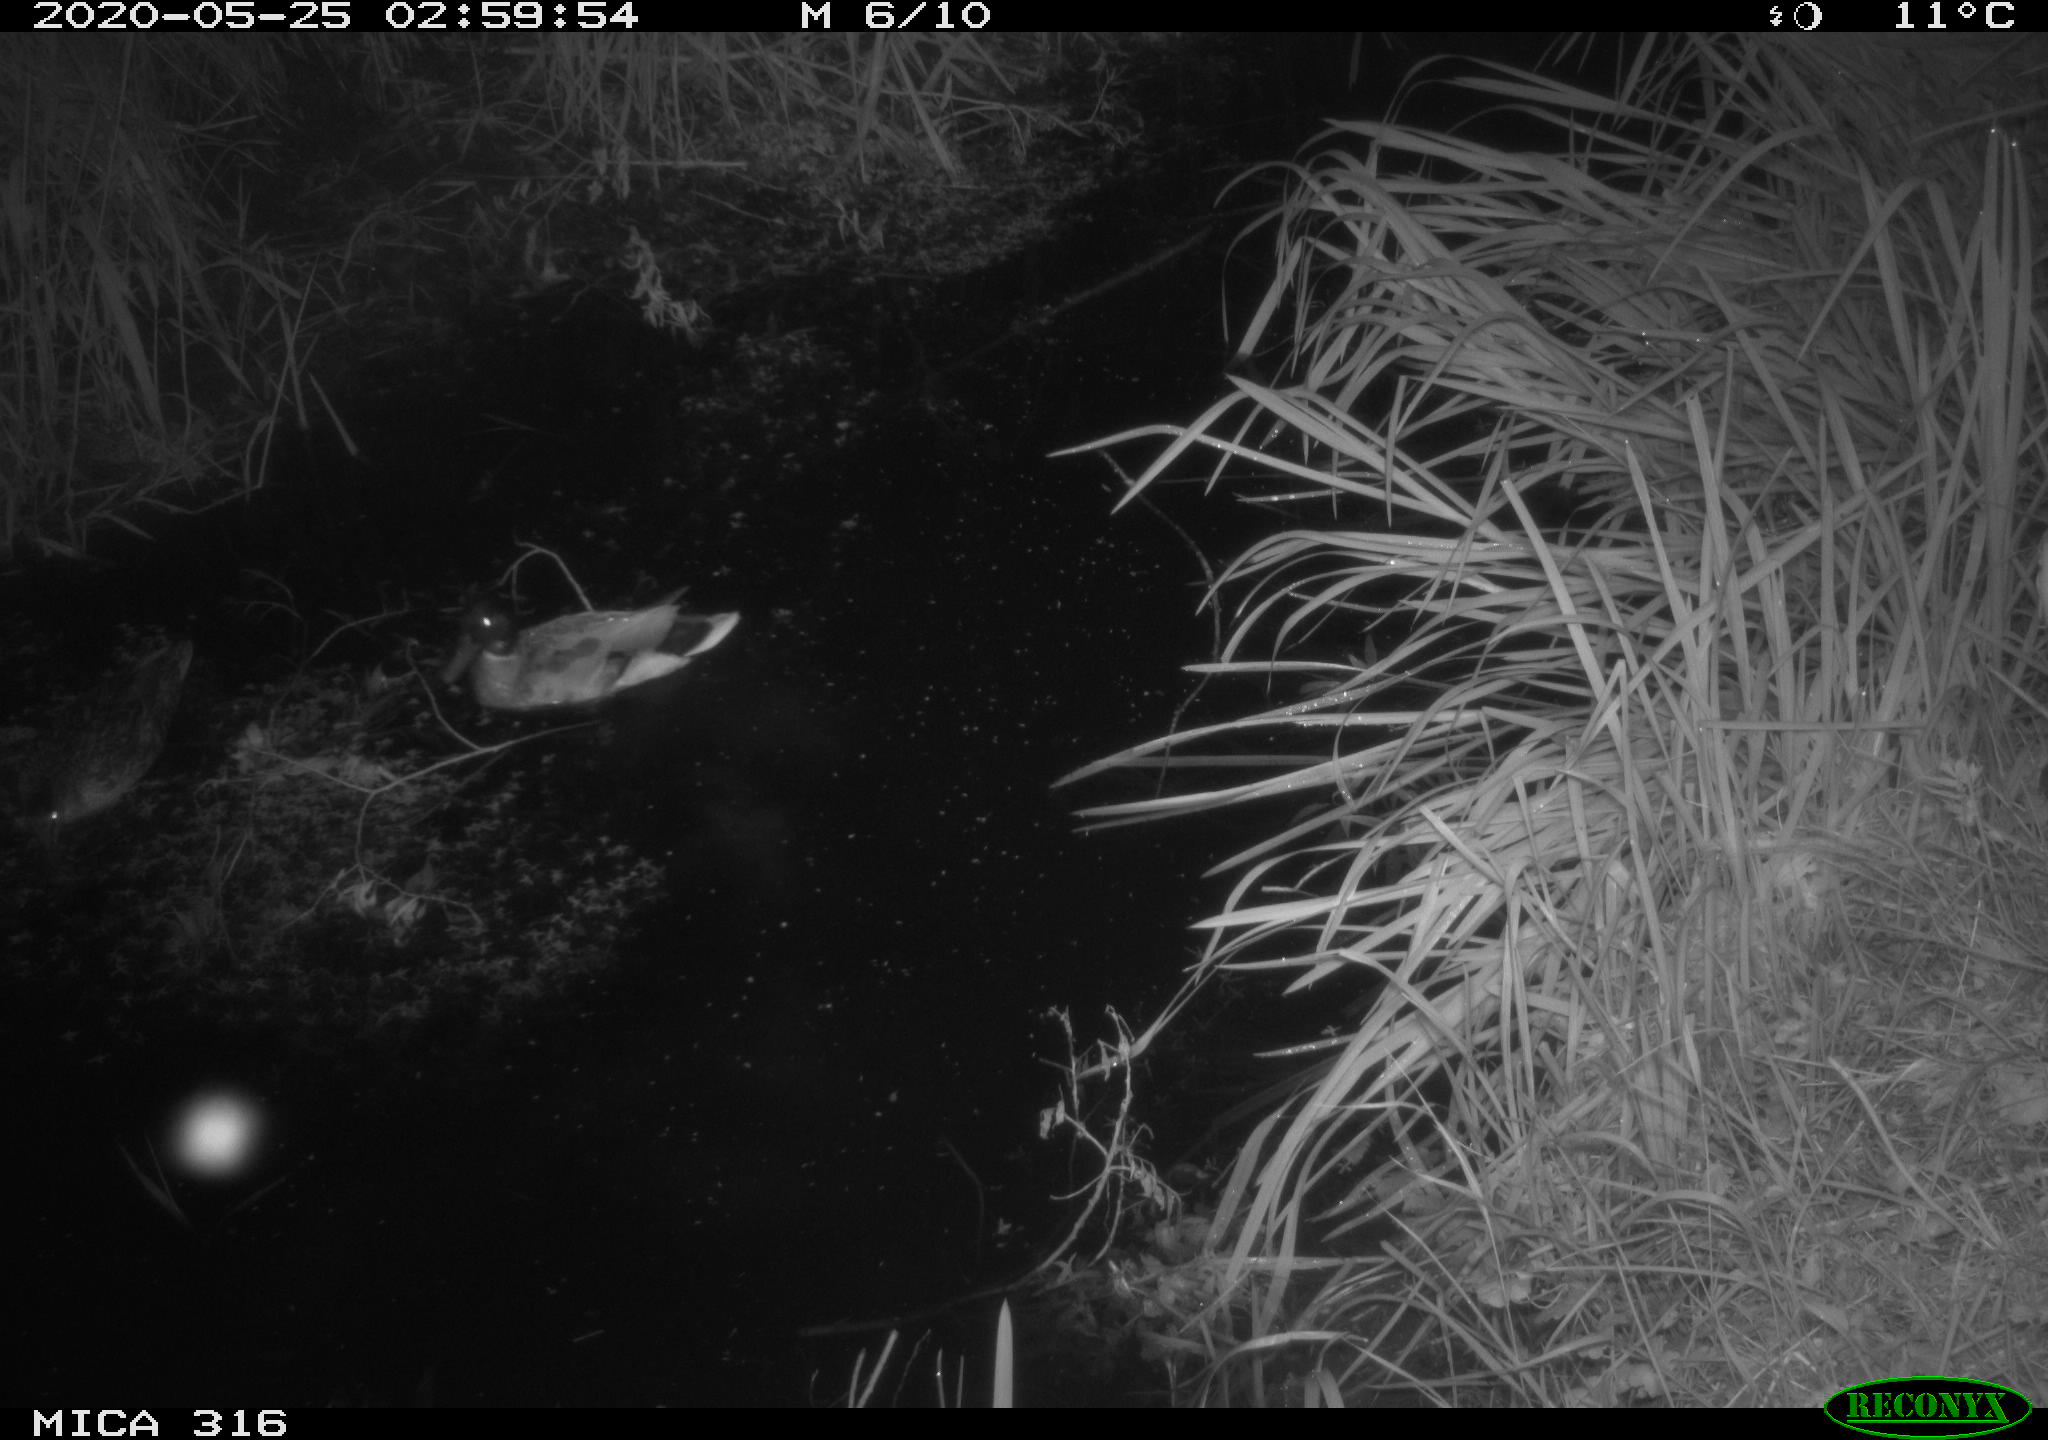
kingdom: Animalia
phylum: Chordata
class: Aves
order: Anseriformes
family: Anatidae
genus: Anas
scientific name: Anas platyrhynchos
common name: Mallard
